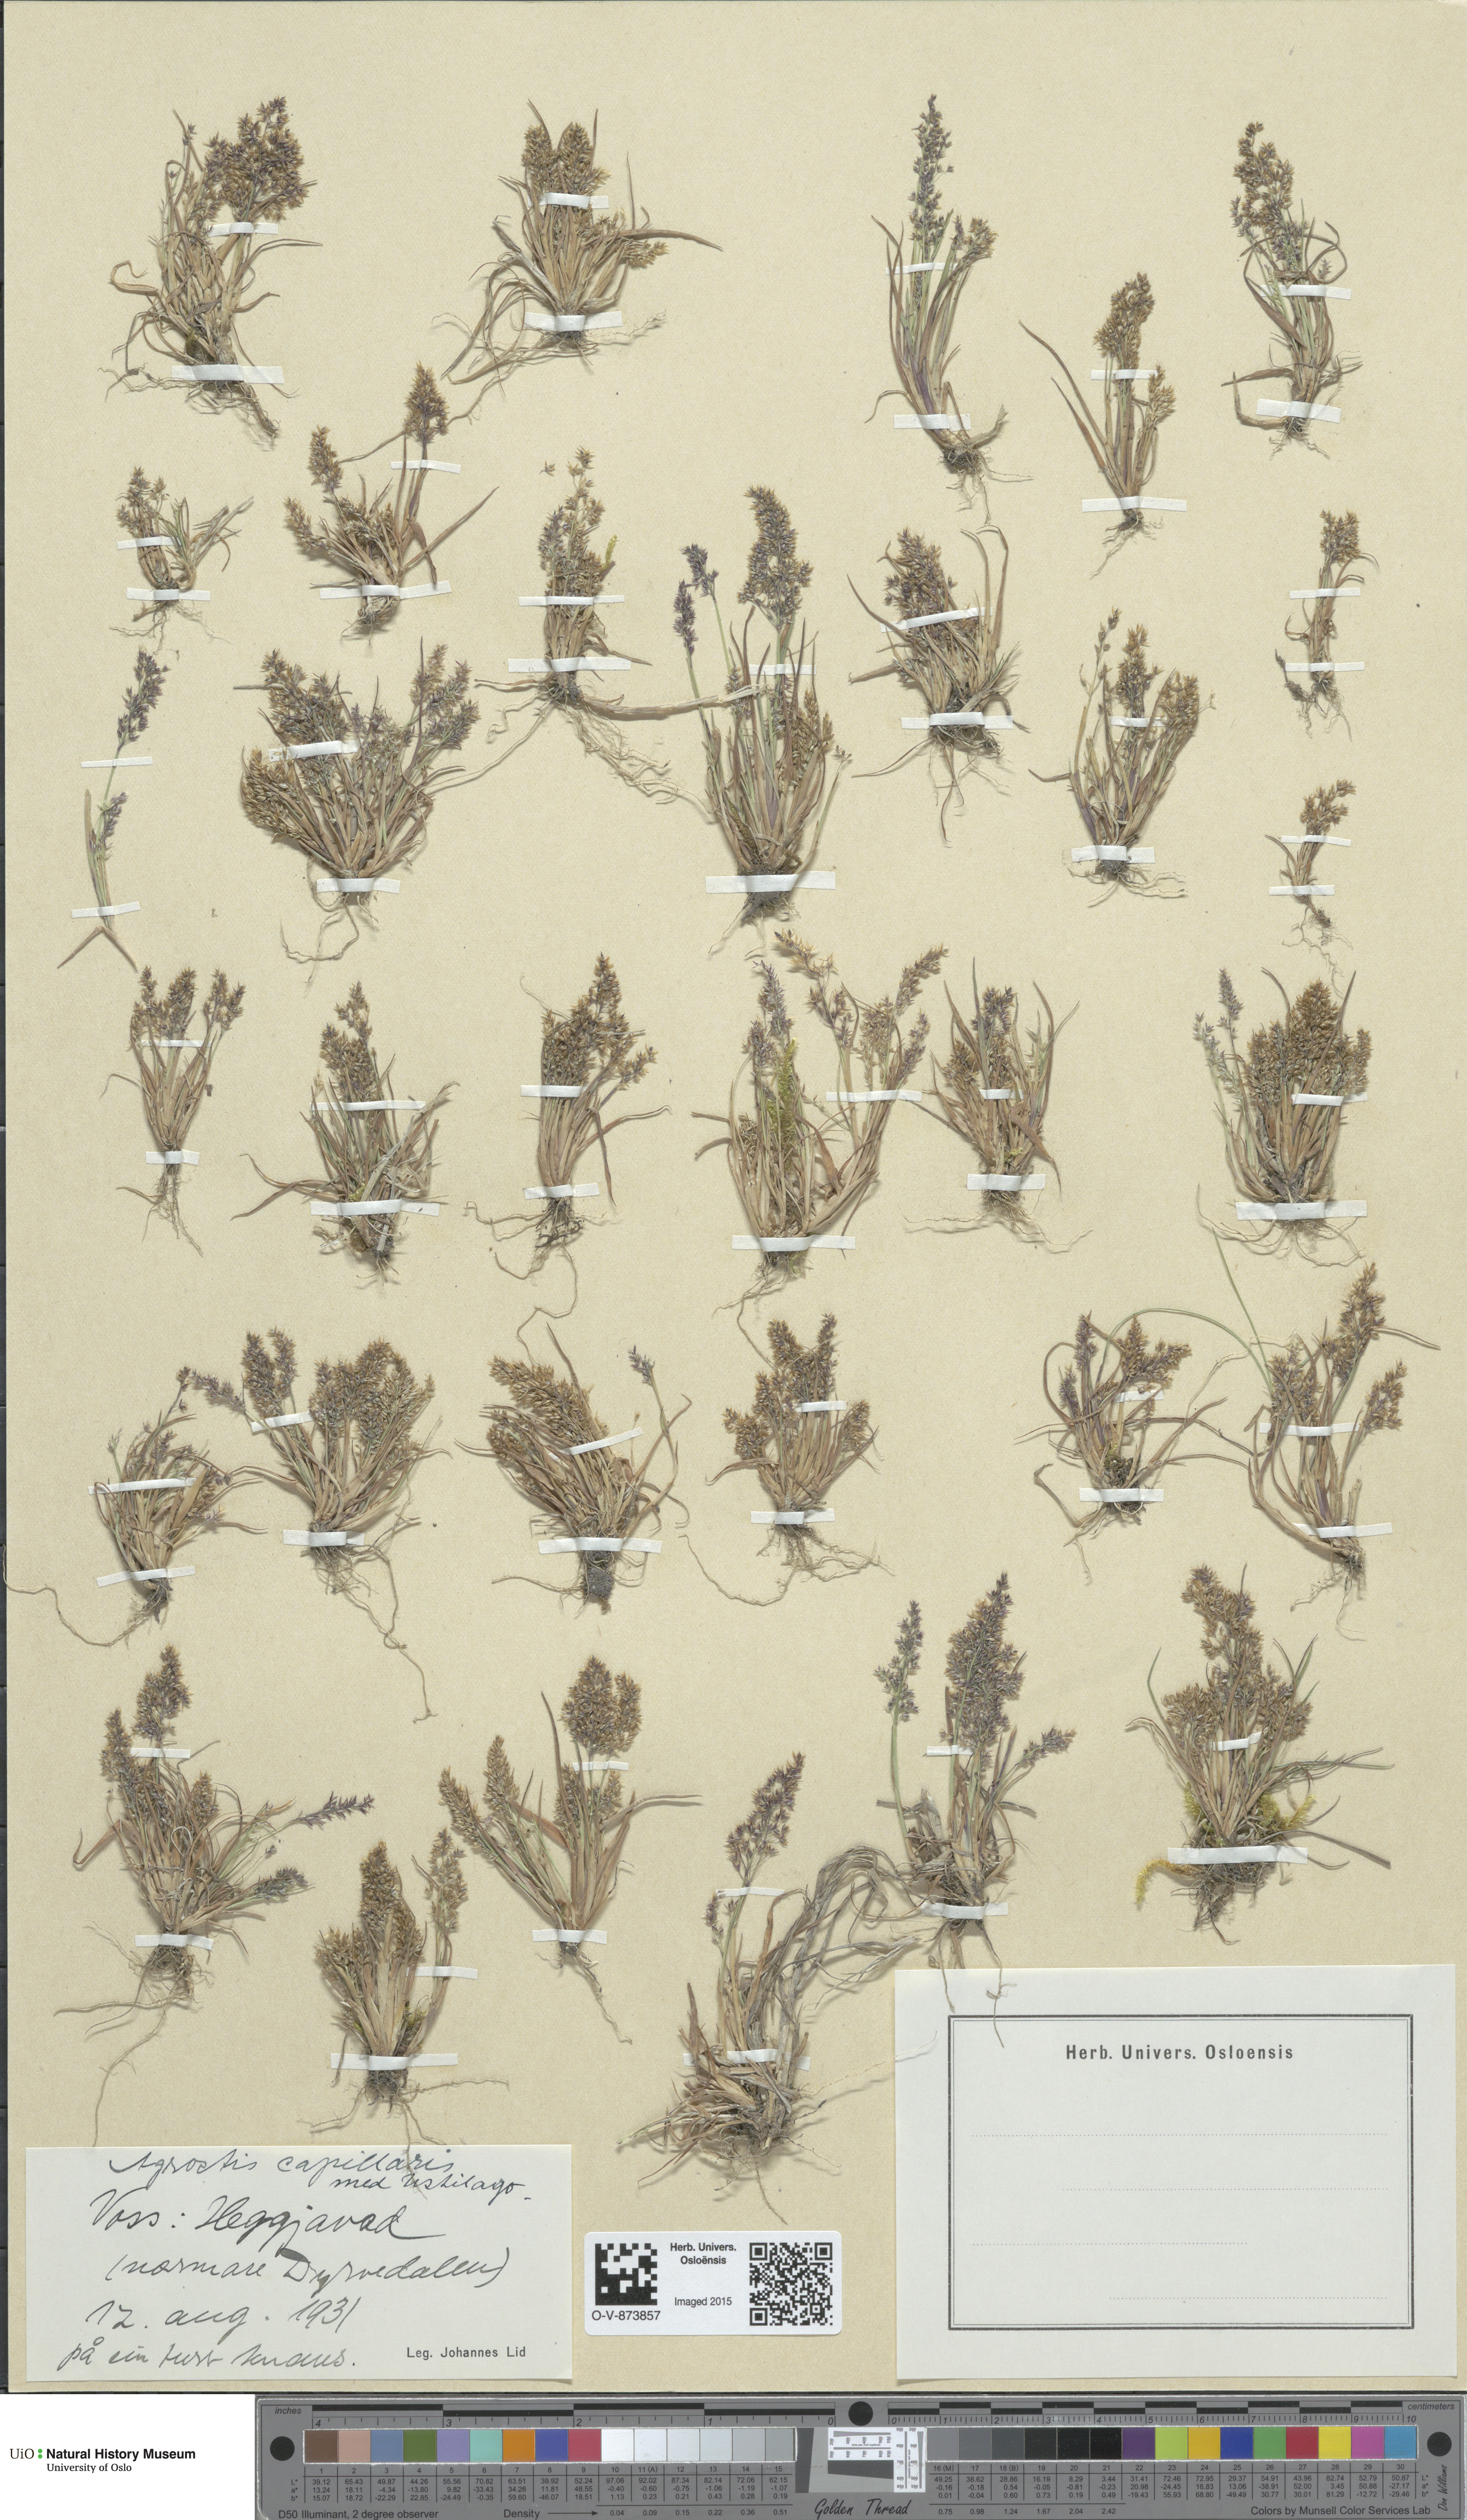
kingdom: Plantae
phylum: Tracheophyta
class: Liliopsida
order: Poales
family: Poaceae
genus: Agrostis
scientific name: Agrostis capillaris
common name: Colonial bentgrass
